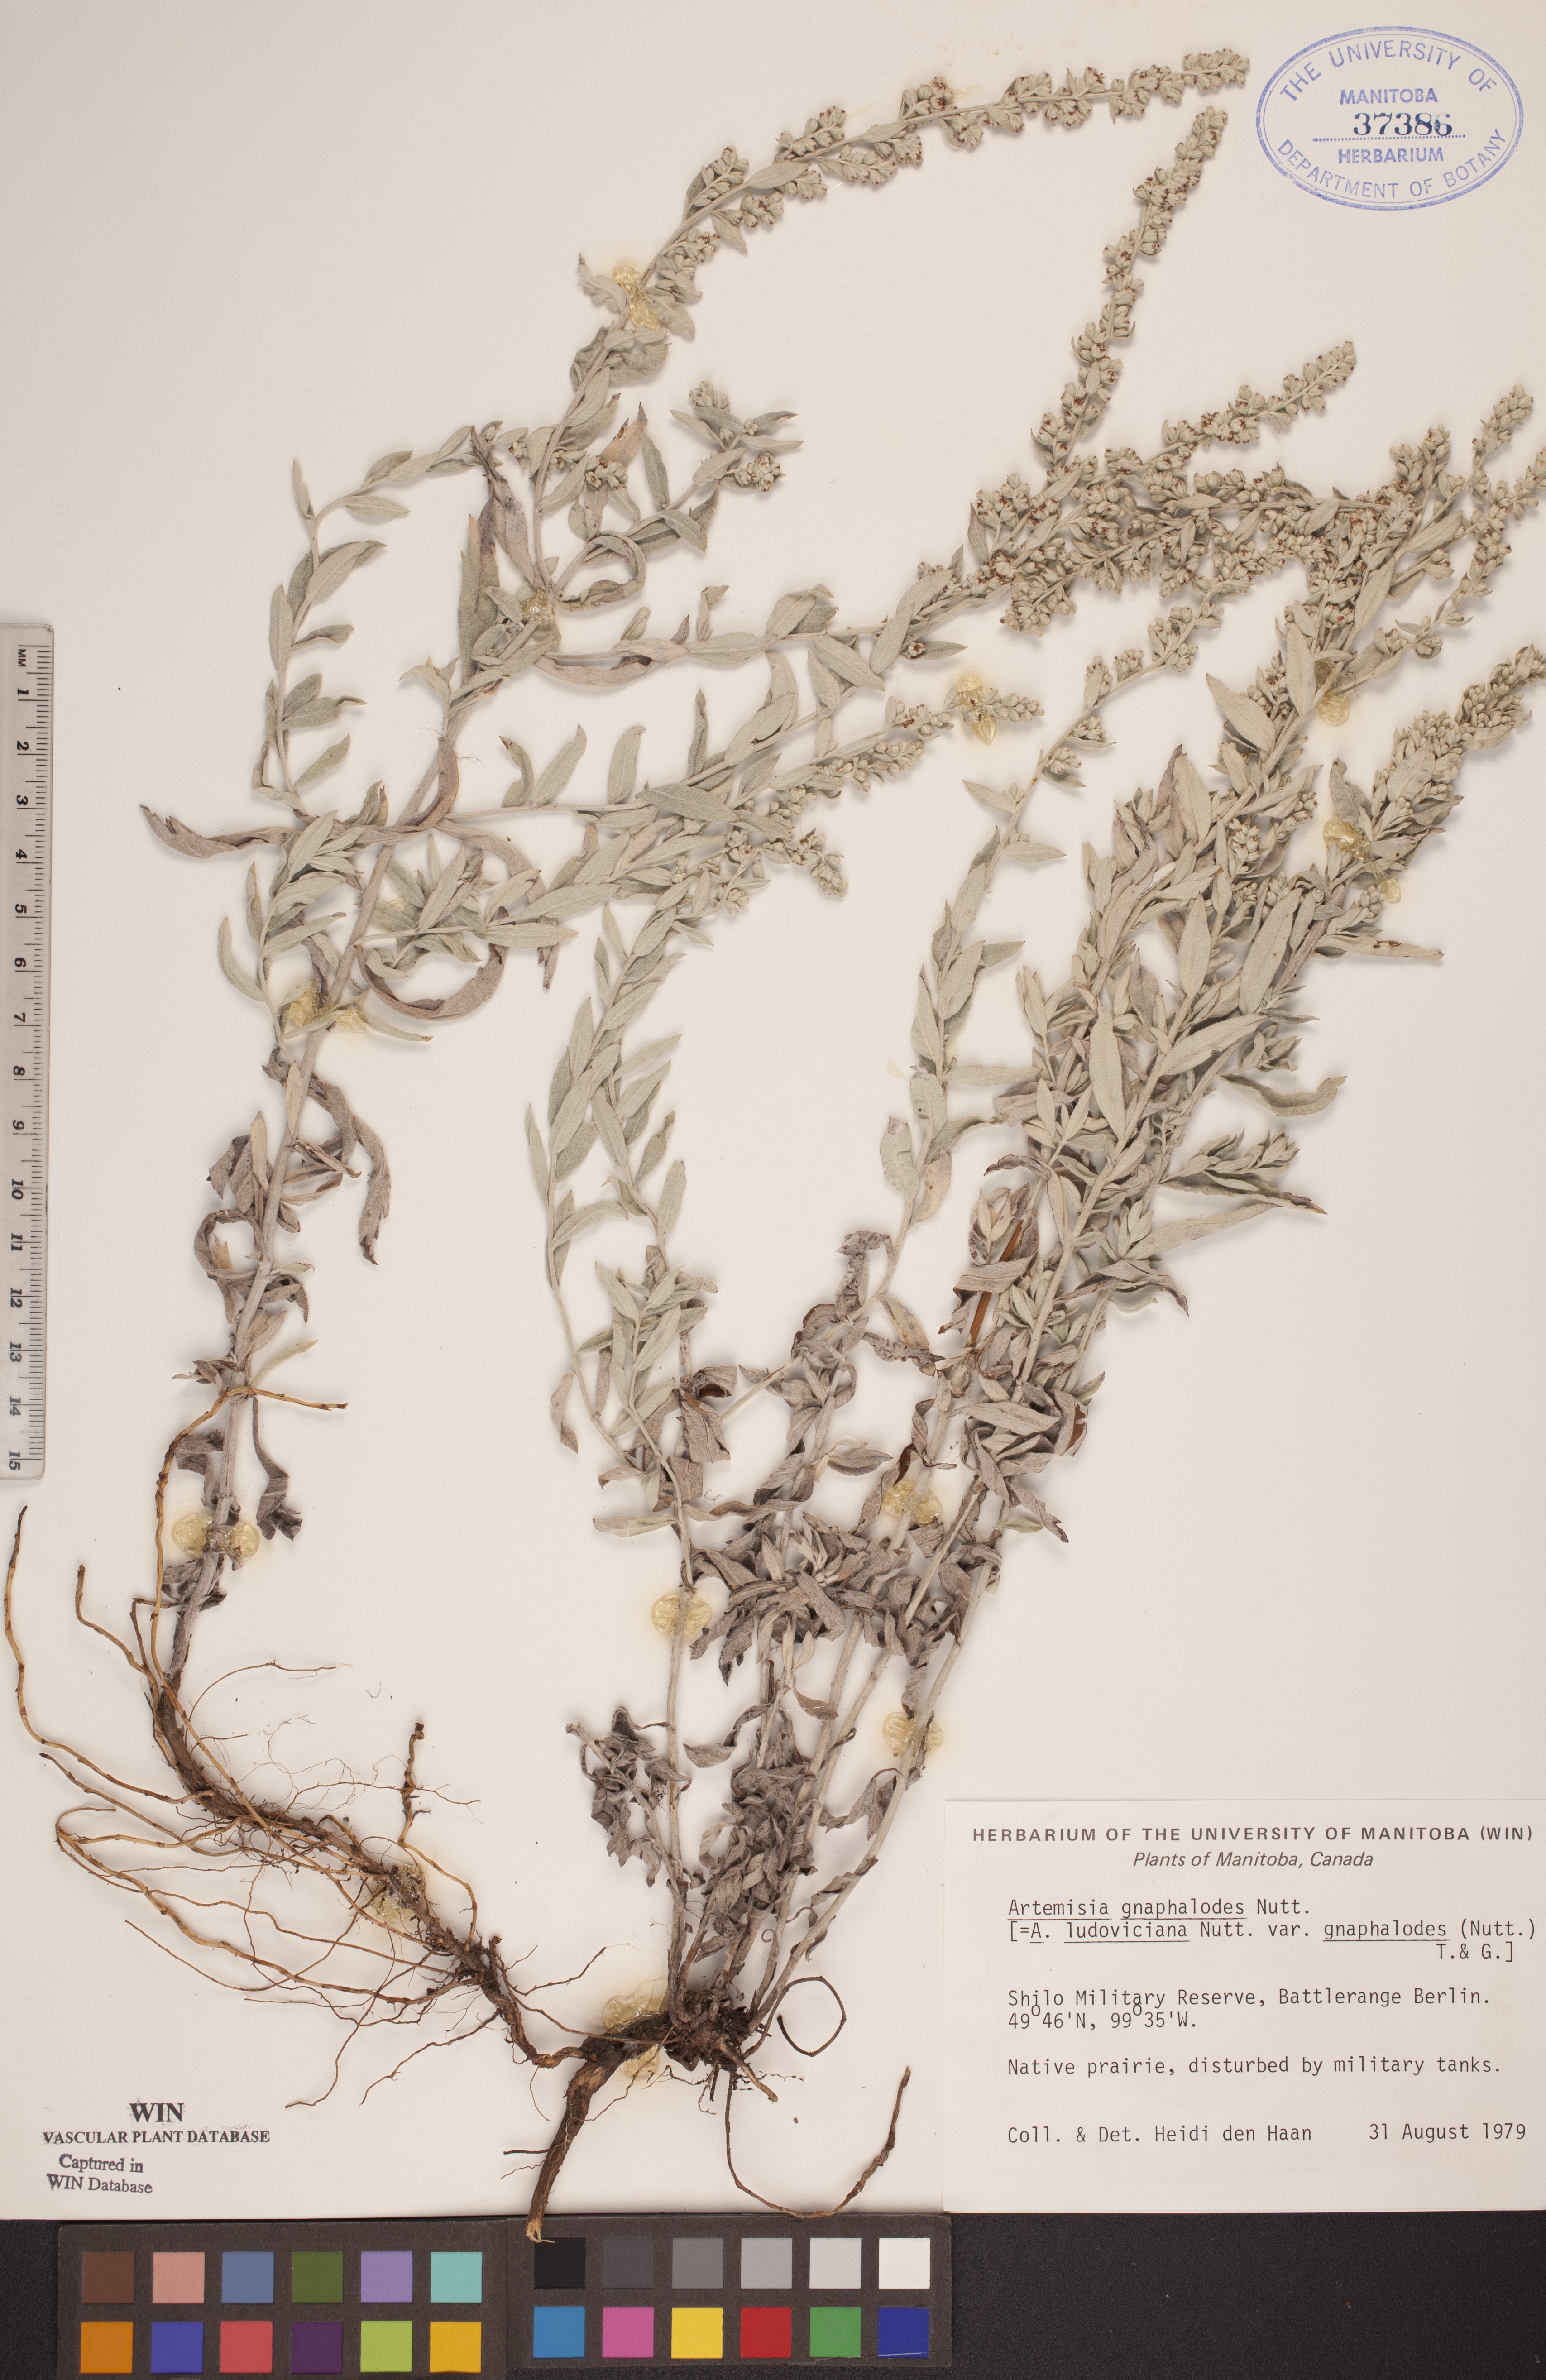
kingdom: Plantae
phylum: Tracheophyta
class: Magnoliopsida
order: Asterales
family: Asteraceae
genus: Artemisia
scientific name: Artemisia ludoviciana
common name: Western mugwort
